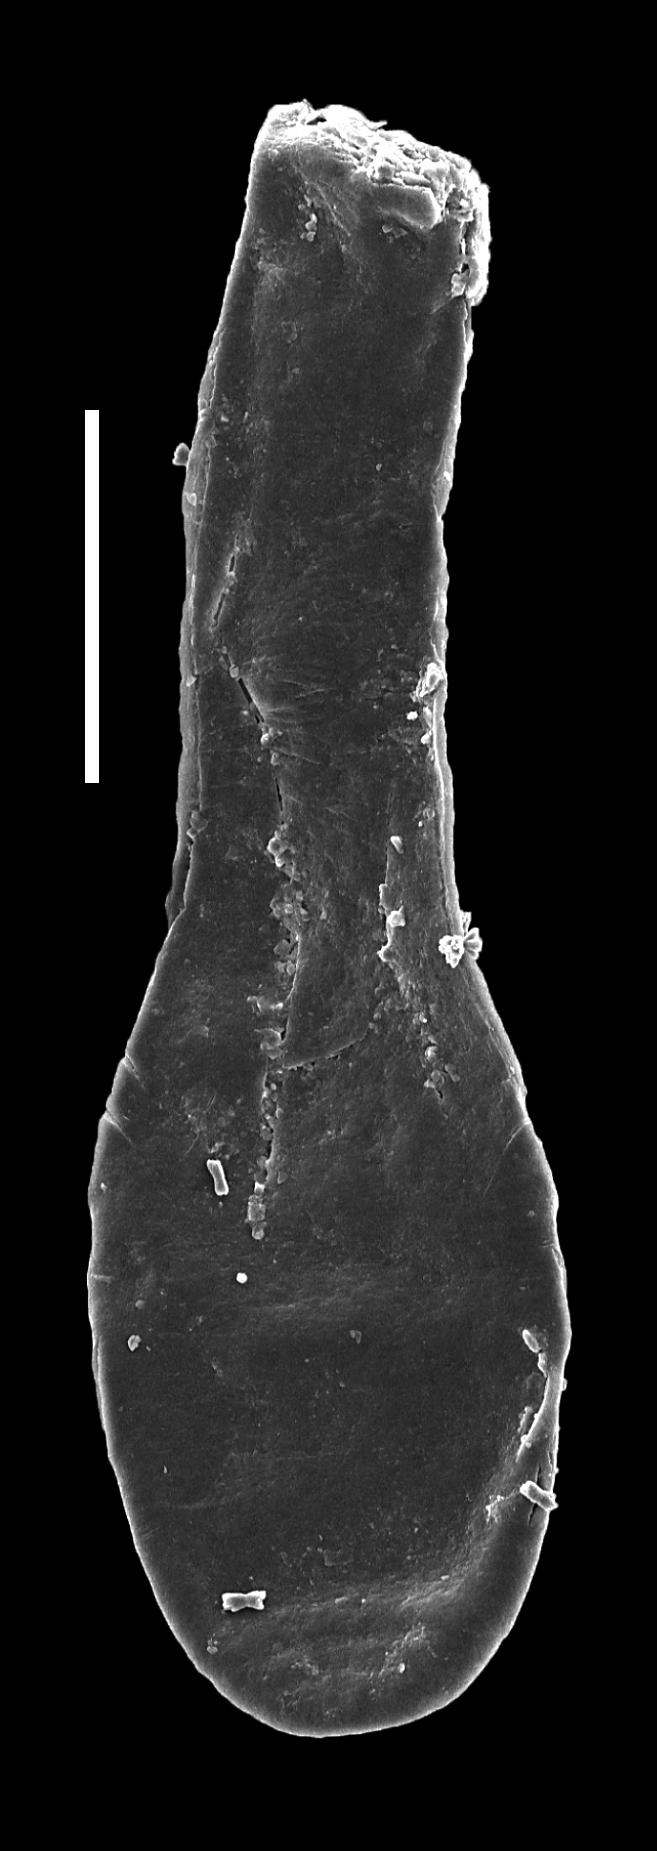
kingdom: Animalia
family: Lagenochitinidae
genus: Lagenochitina
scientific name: Lagenochitina
